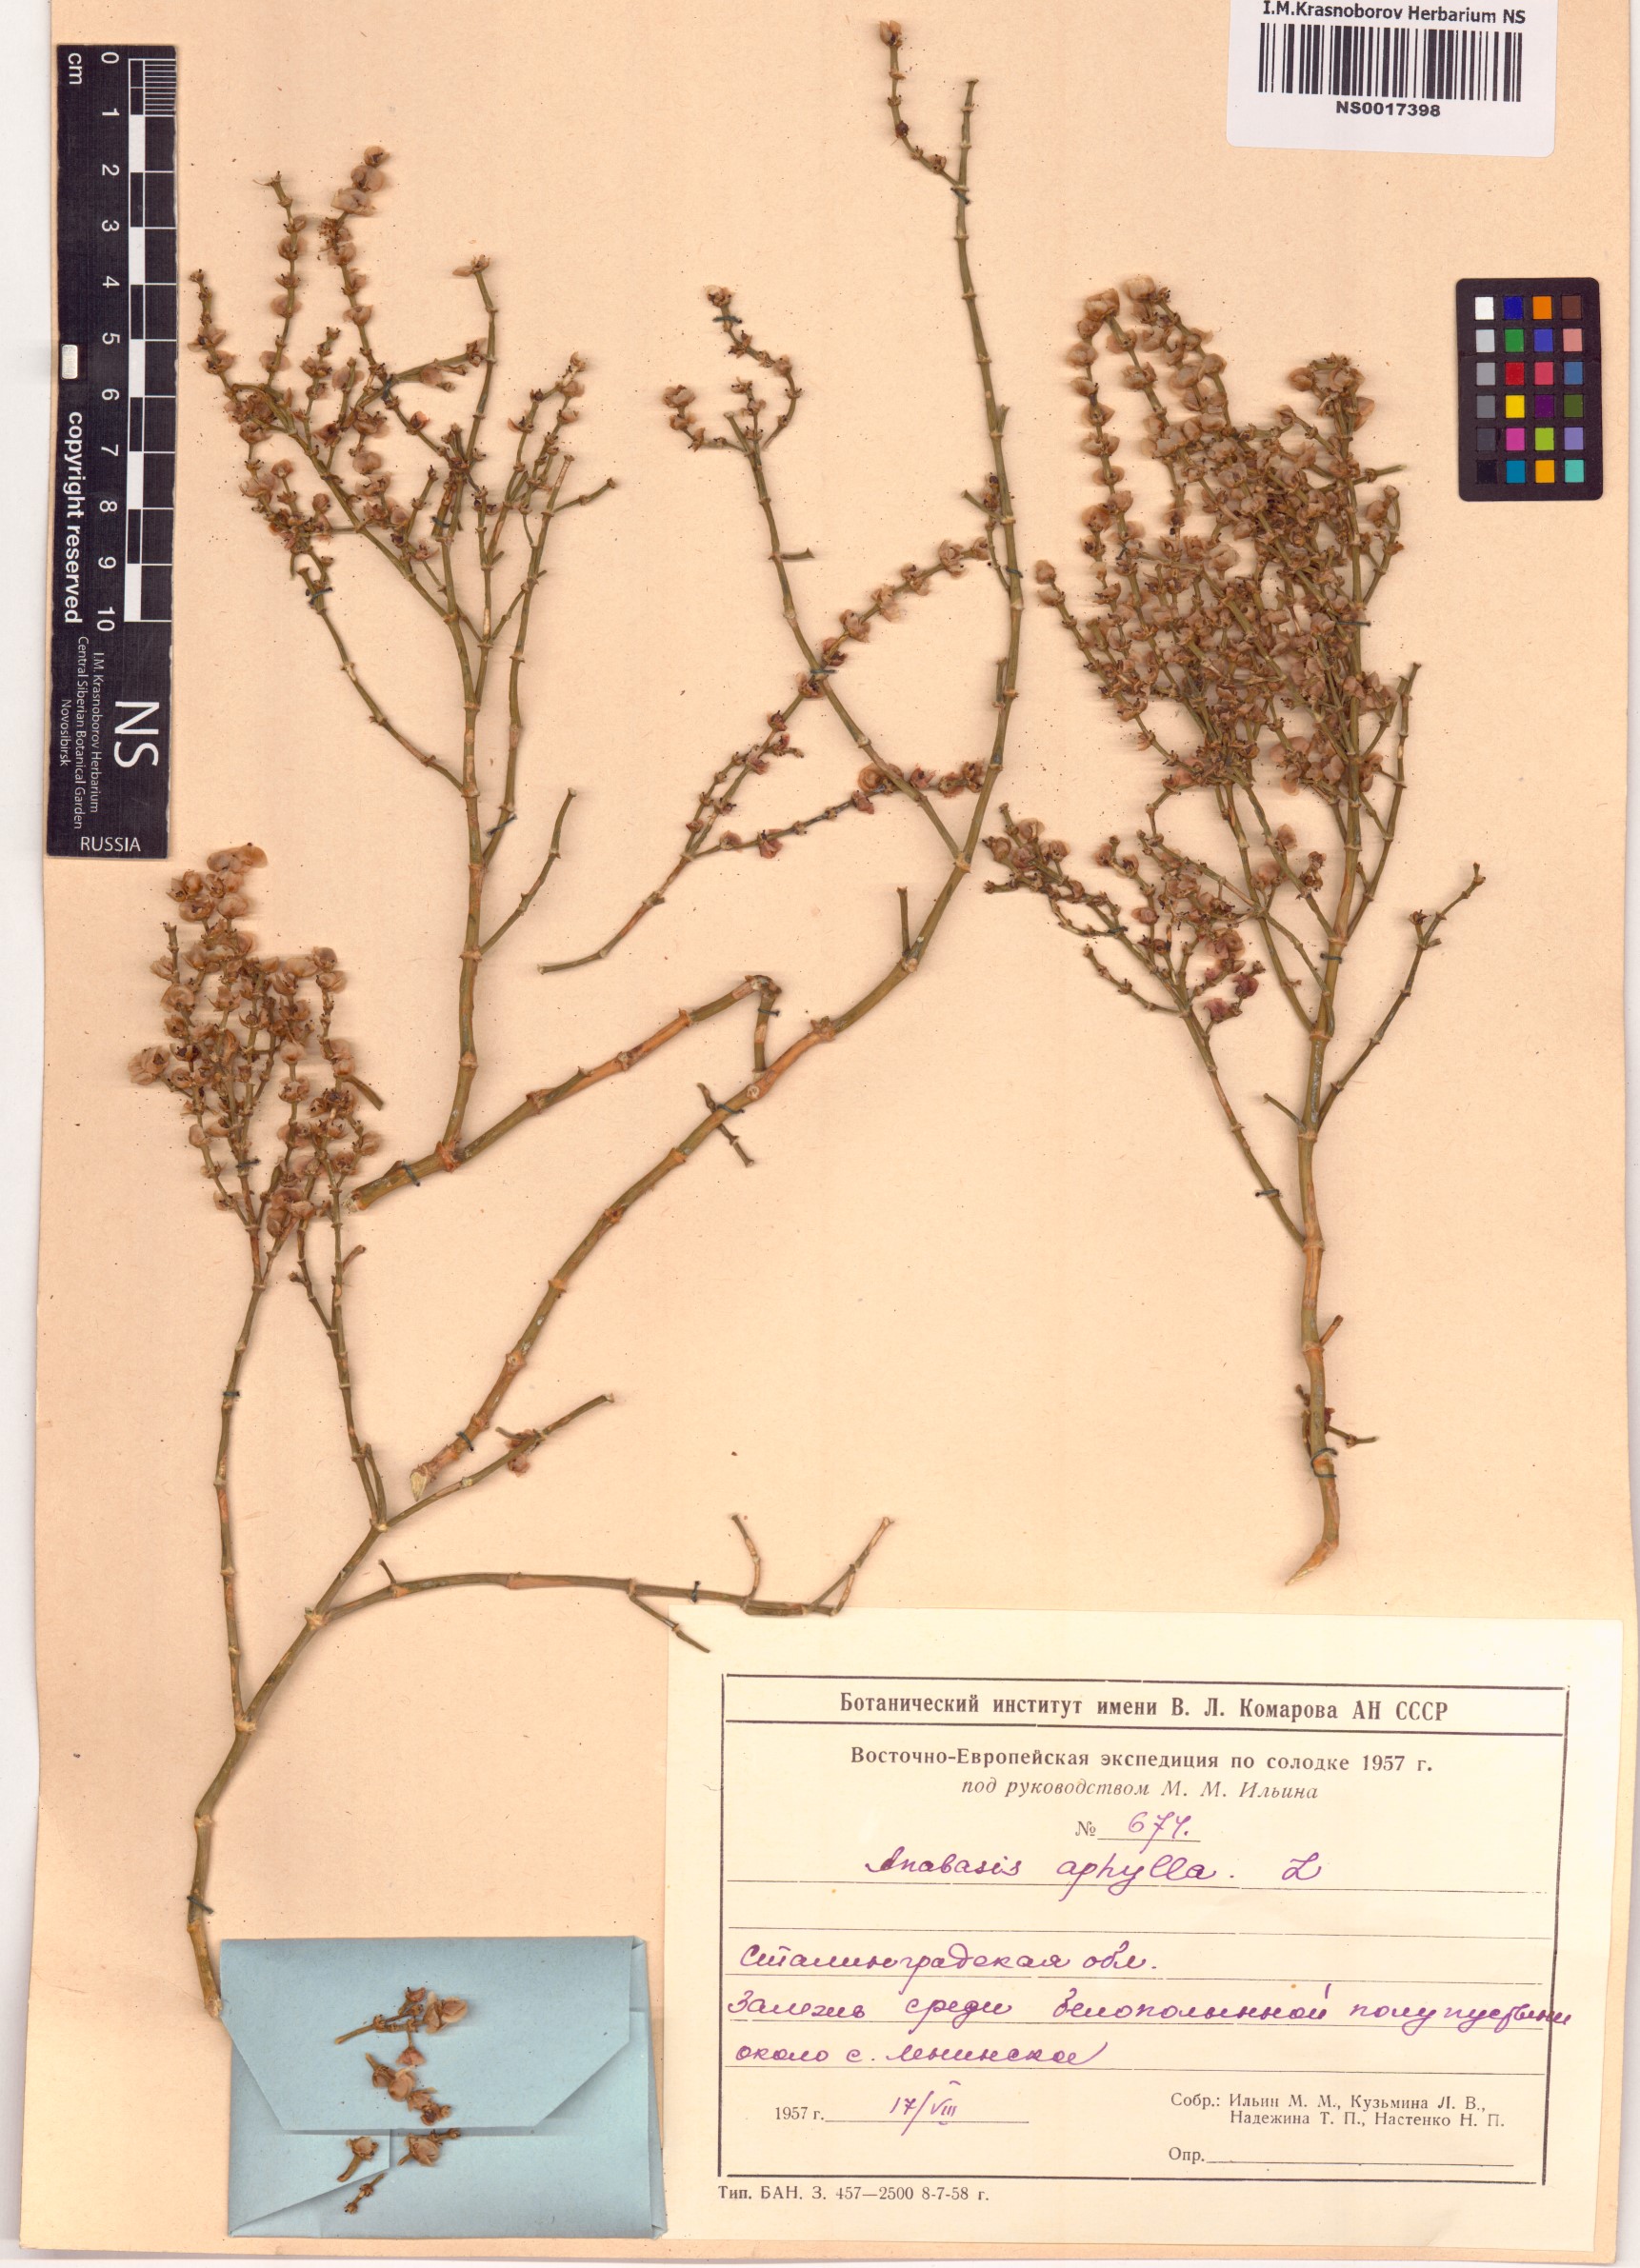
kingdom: Plantae
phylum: Tracheophyta
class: Magnoliopsida
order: Caryophyllales
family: Amaranthaceae
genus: Anabasis
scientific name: Anabasis aphylla
